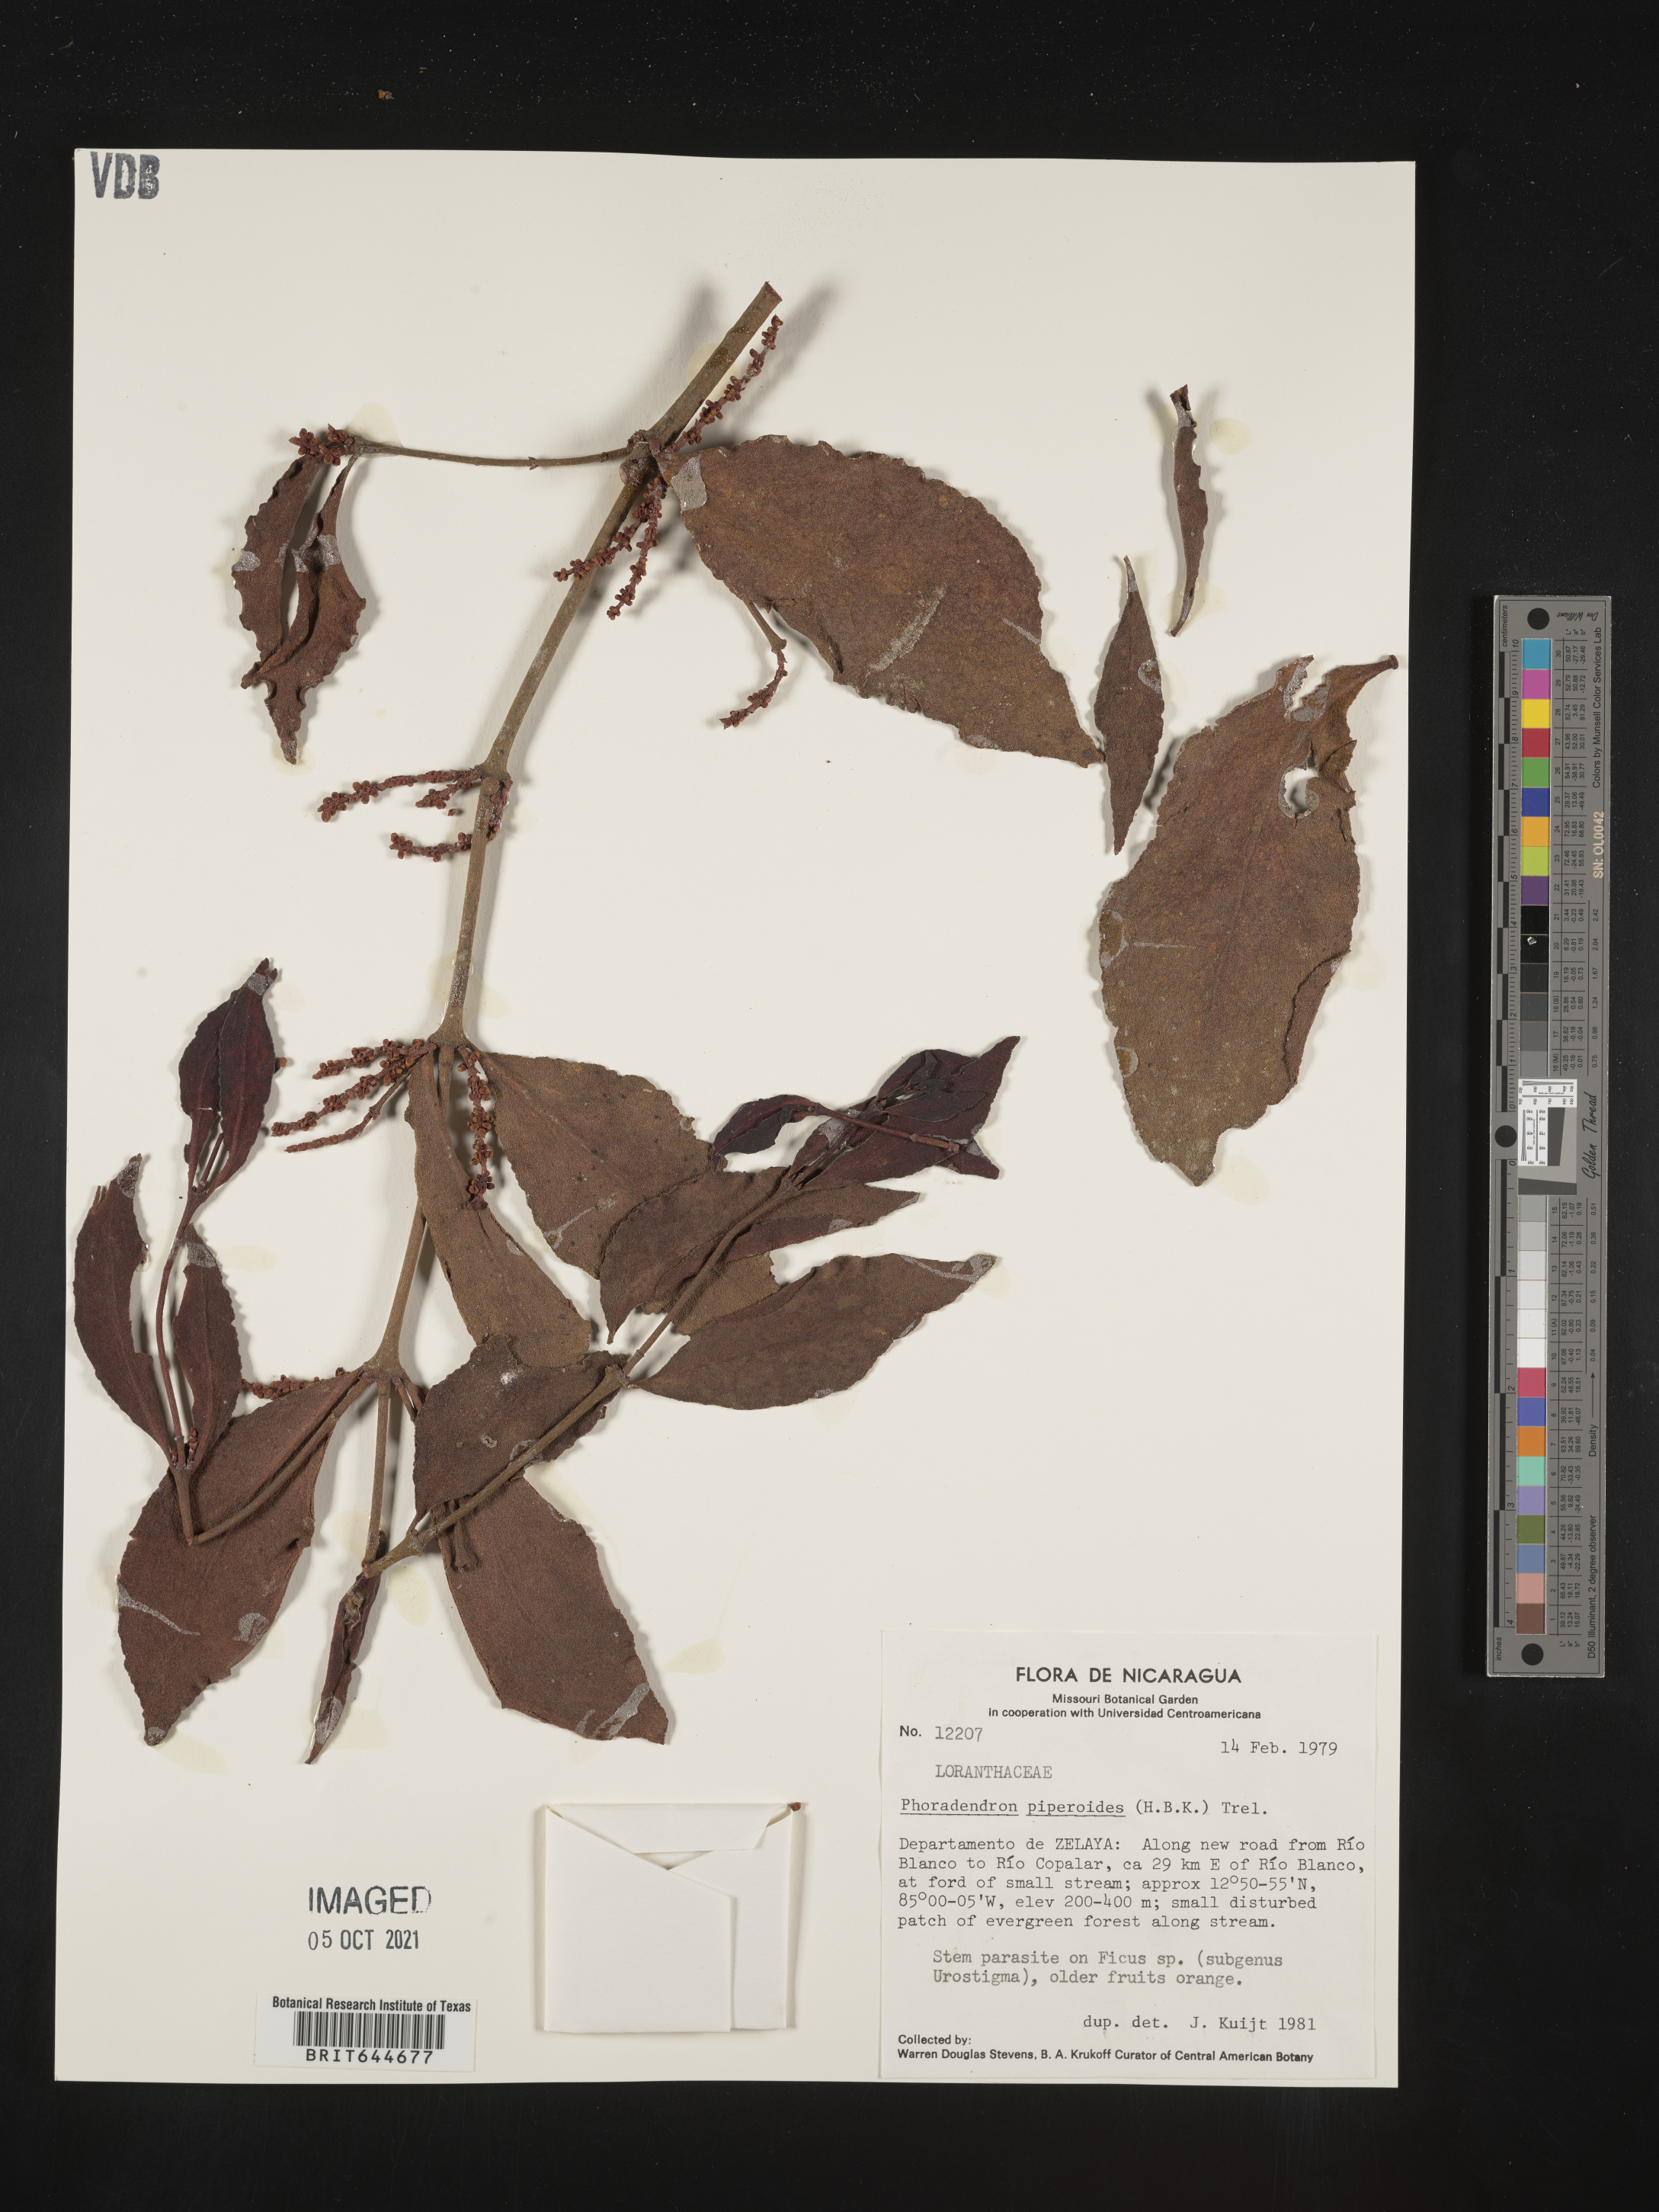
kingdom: Plantae
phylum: Tracheophyta
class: Magnoliopsida
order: Santalales
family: Viscaceae
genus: Phoradendron
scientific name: Phoradendron
